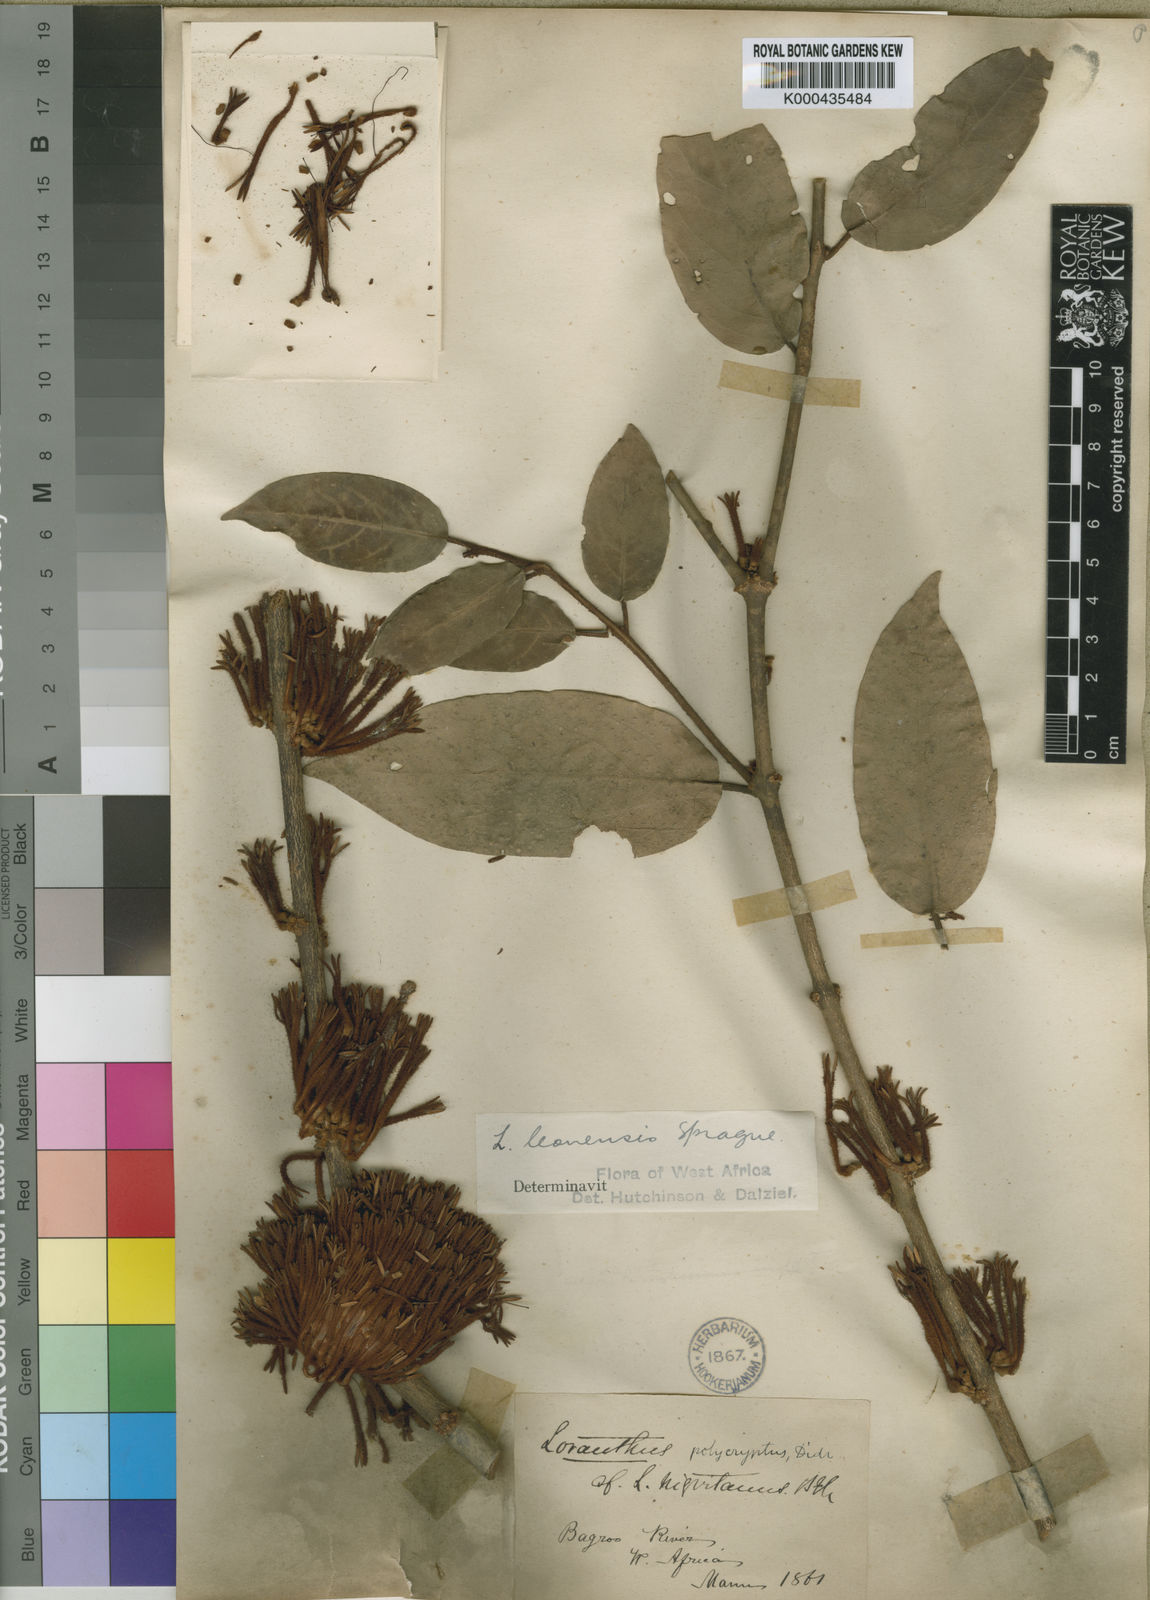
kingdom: Plantae
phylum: Tracheophyta
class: Magnoliopsida
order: Santalales
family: Loranthaceae
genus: Phragmanthera
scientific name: Phragmanthera leonensis
